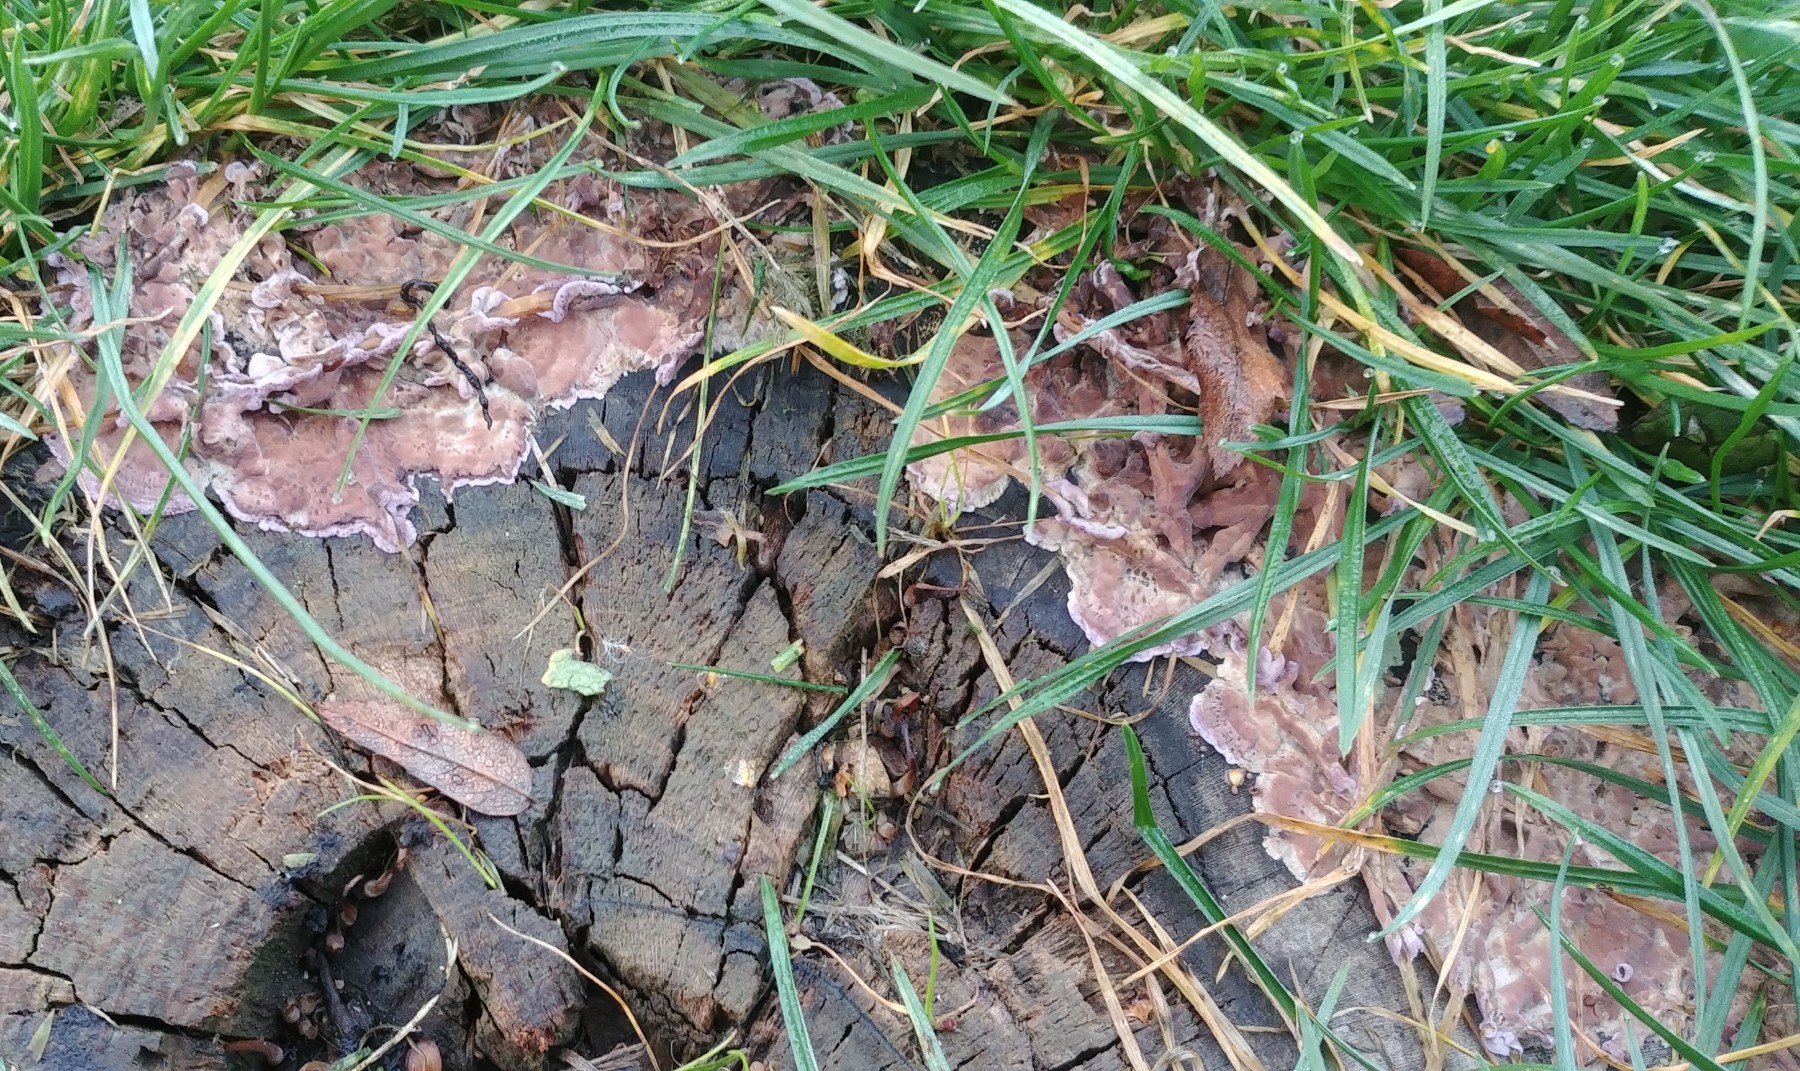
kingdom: Fungi
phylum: Basidiomycota
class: Agaricomycetes
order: Agaricales
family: Cyphellaceae
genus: Chondrostereum
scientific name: Chondrostereum purpureum
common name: purpurlædersvamp
